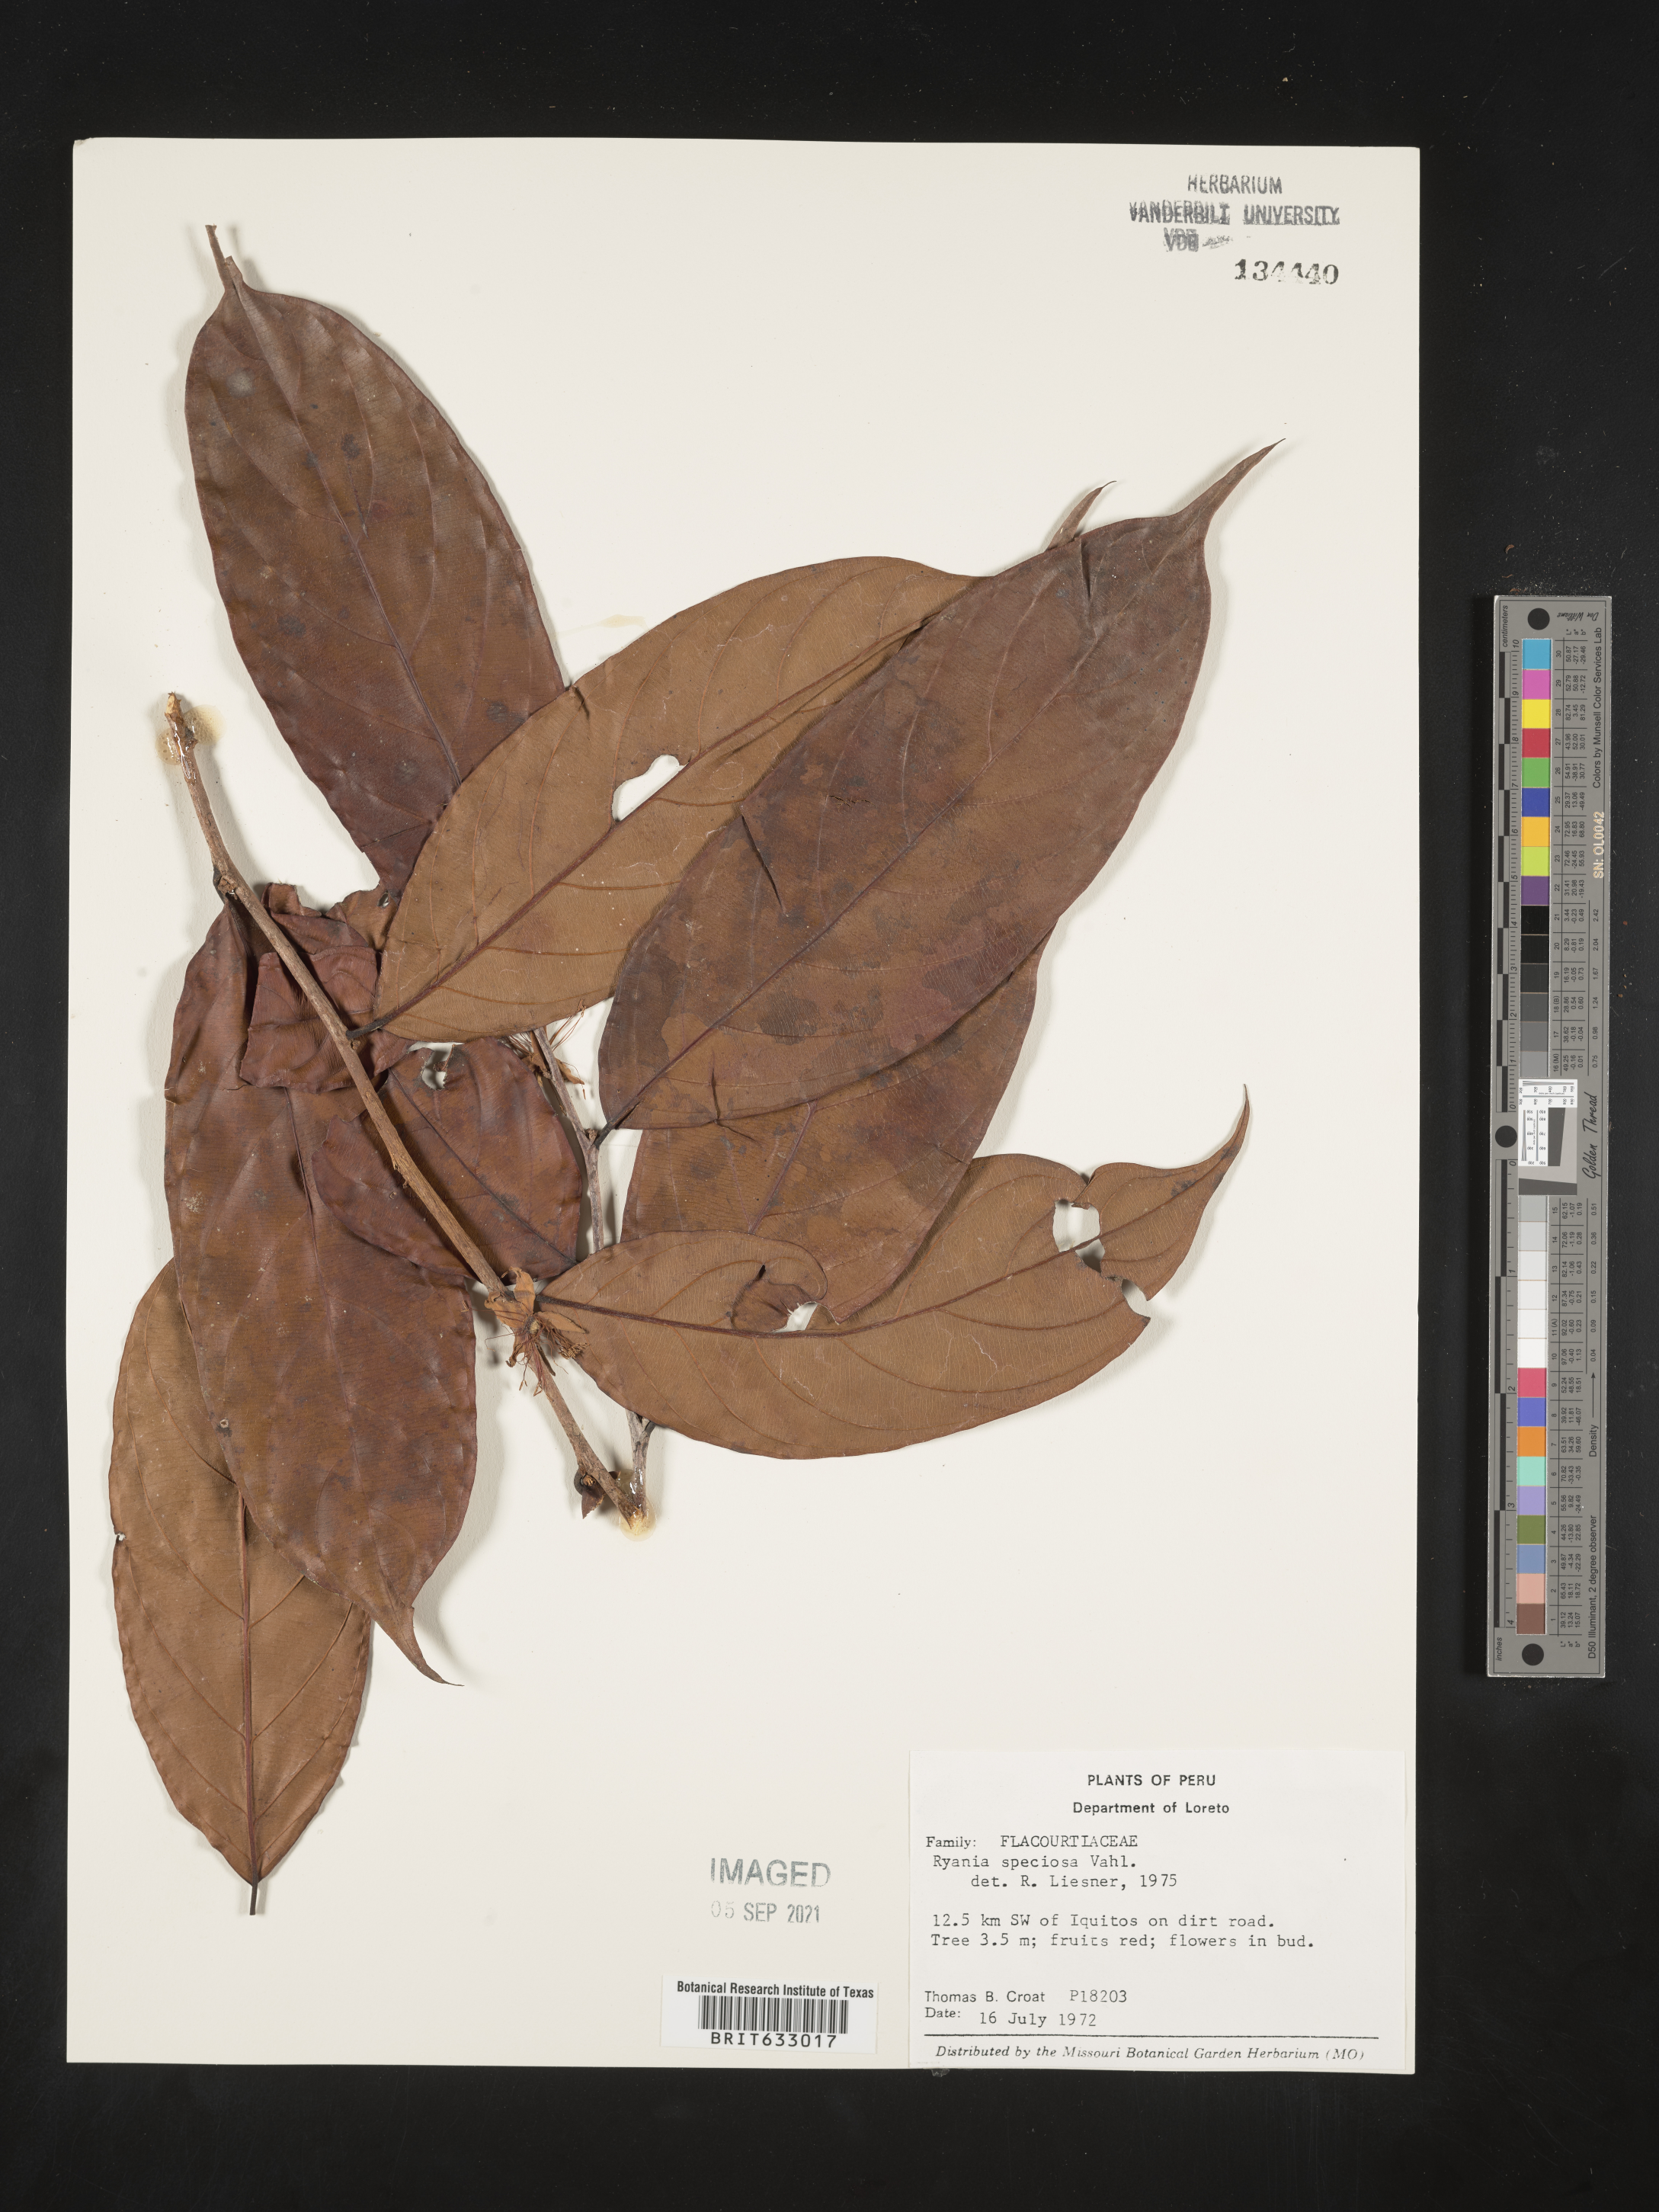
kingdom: Plantae
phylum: Tracheophyta
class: Magnoliopsida
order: Malpighiales
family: Salicaceae
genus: Ryania
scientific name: Ryania
